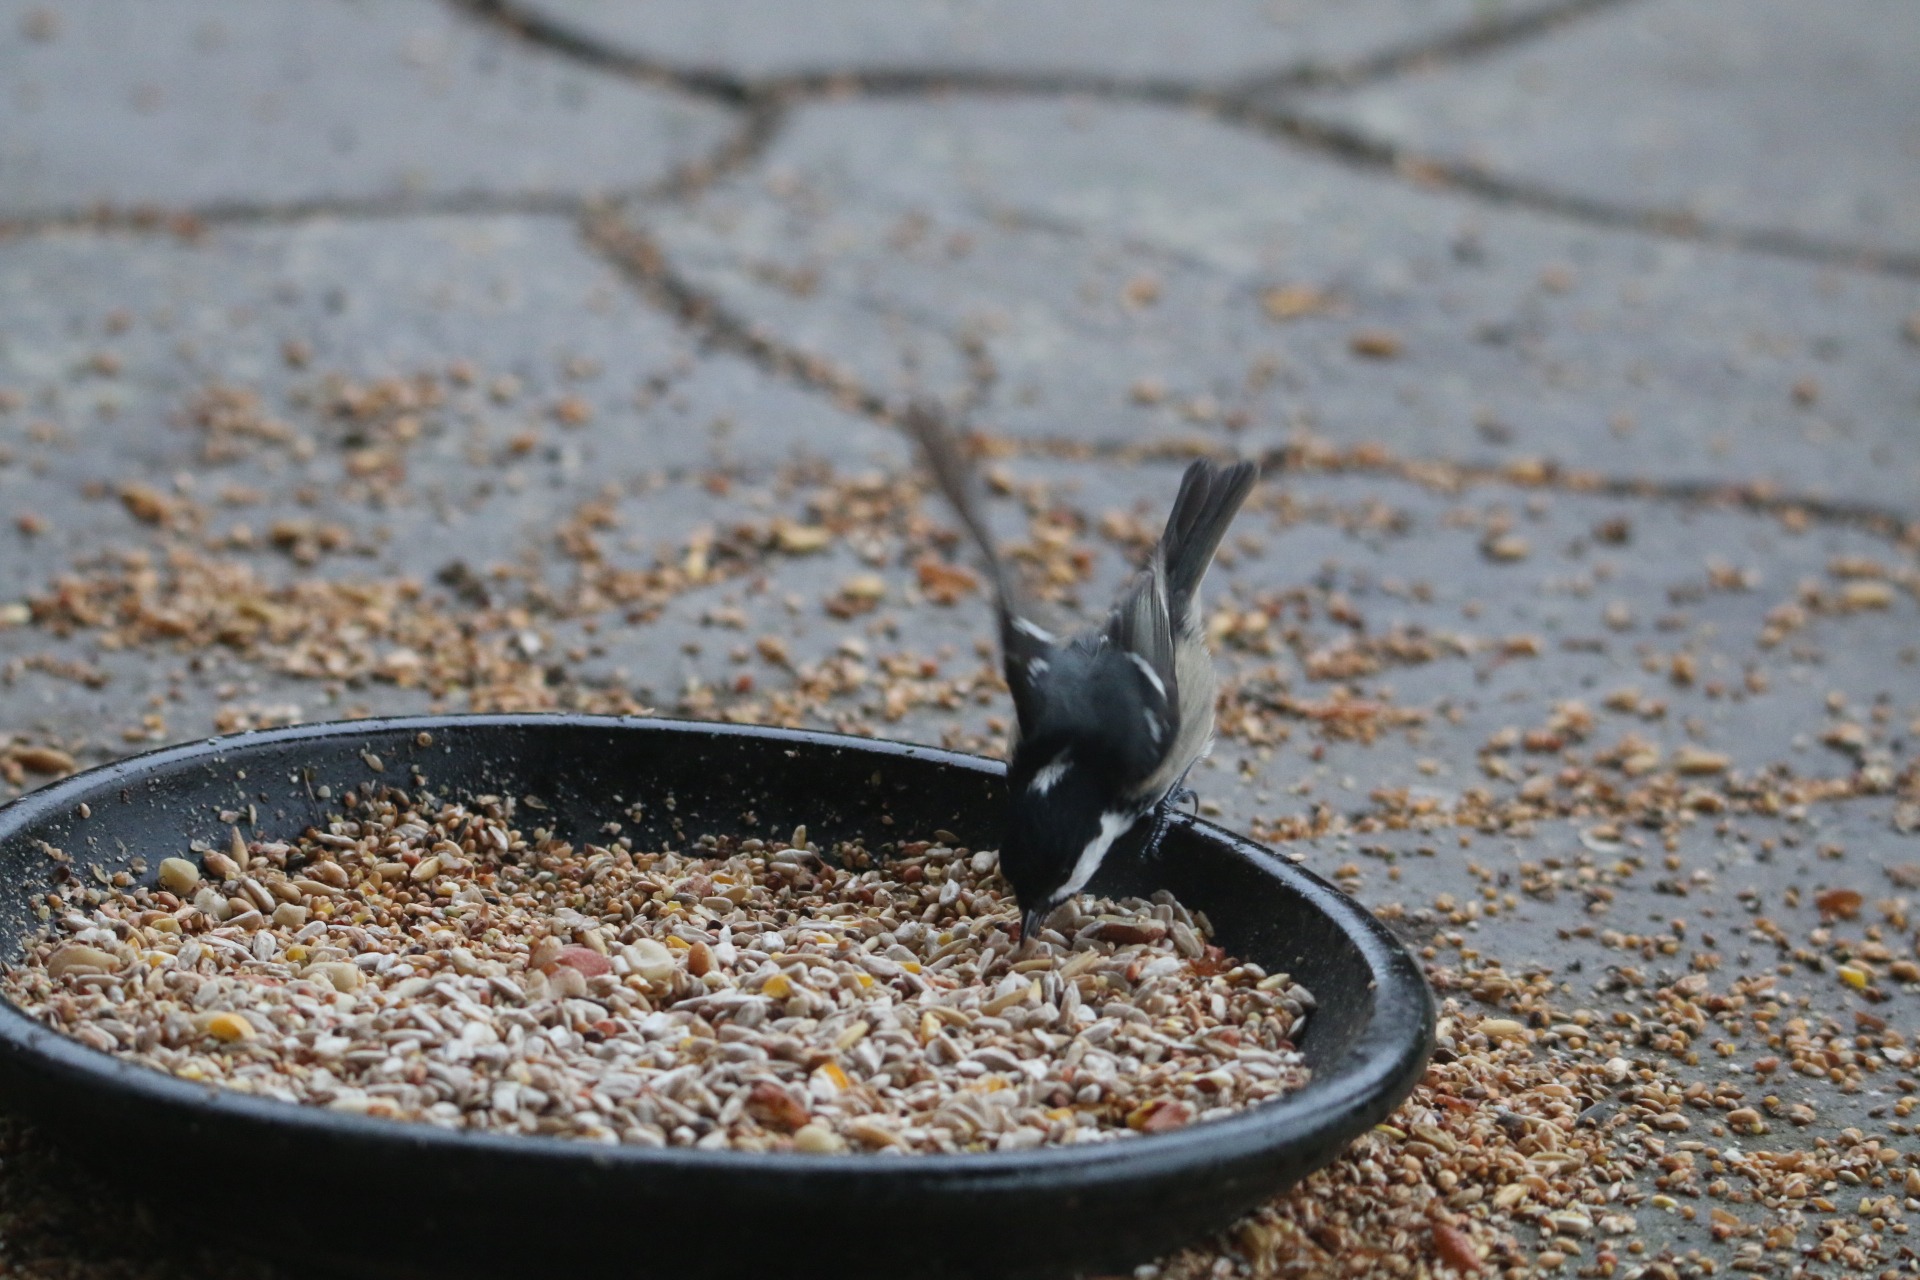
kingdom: Animalia
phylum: Chordata
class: Aves
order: Passeriformes
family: Paridae
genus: Periparus
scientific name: Periparus ater
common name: Sortmejse
